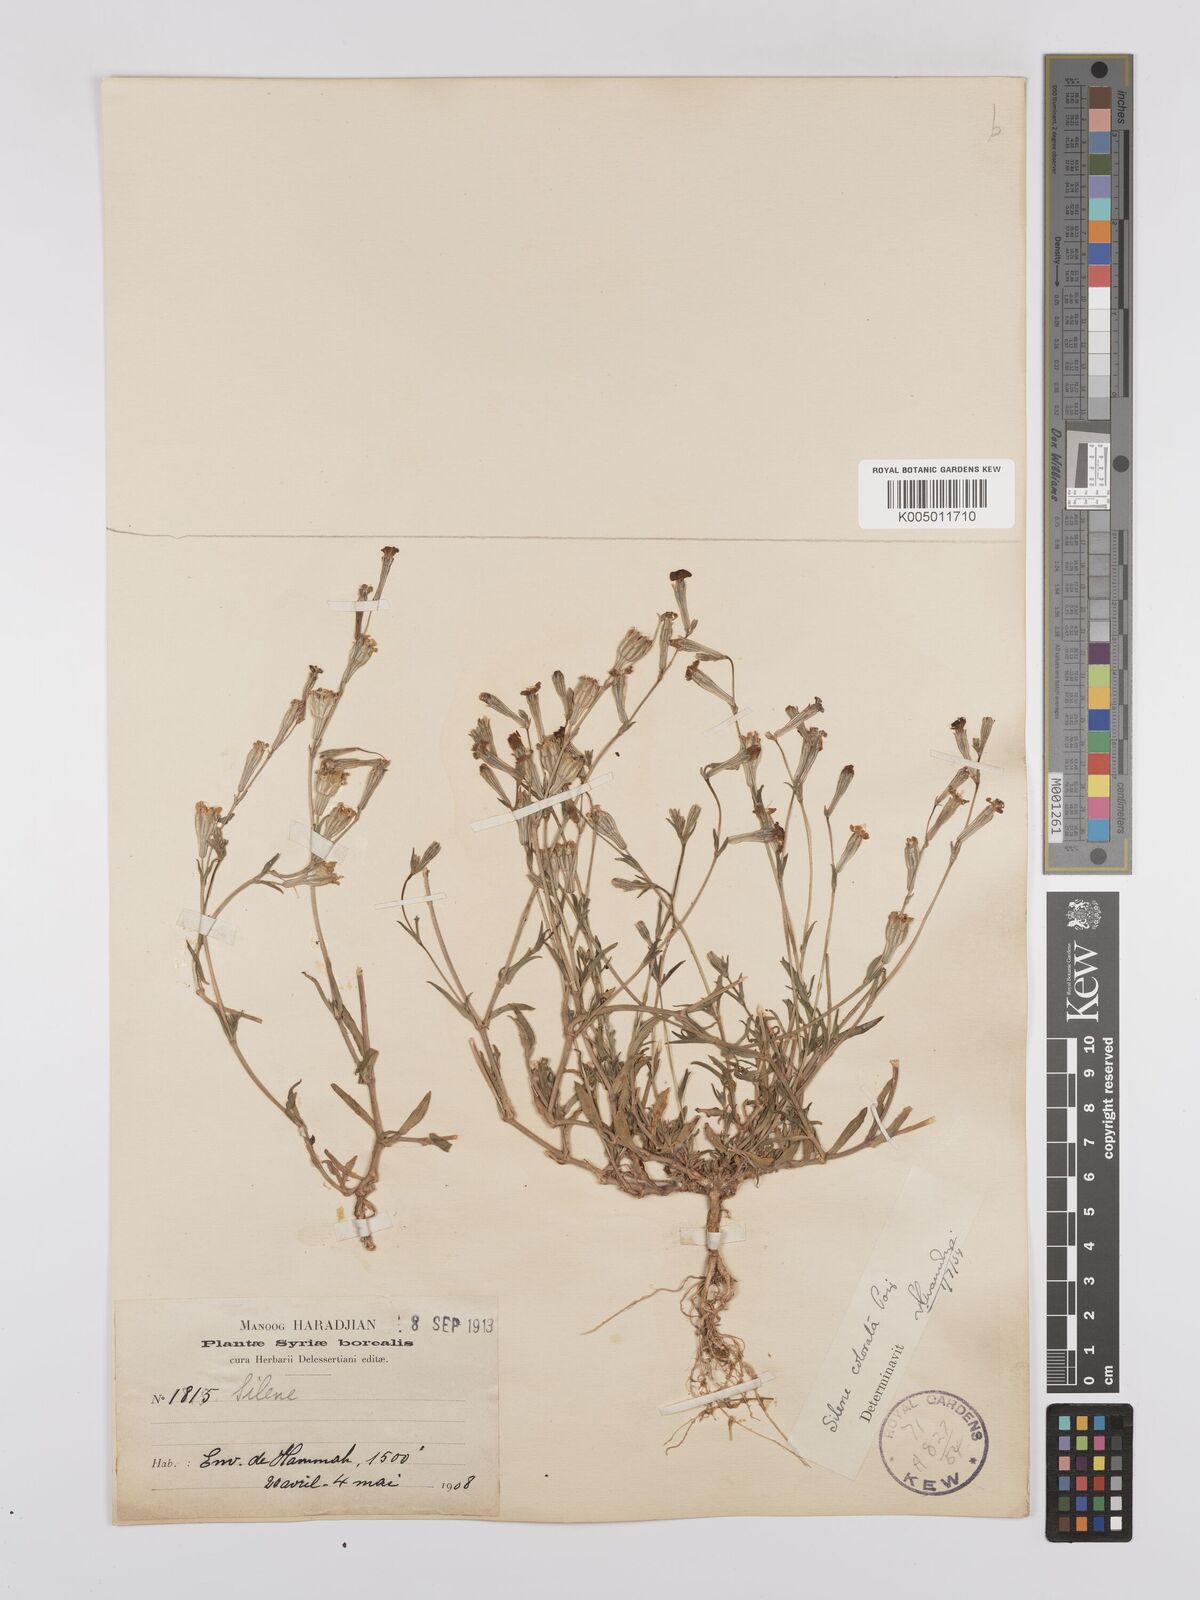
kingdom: Plantae
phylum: Tracheophyta
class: Magnoliopsida
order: Caryophyllales
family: Caryophyllaceae
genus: Silene
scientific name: Silene colorata
